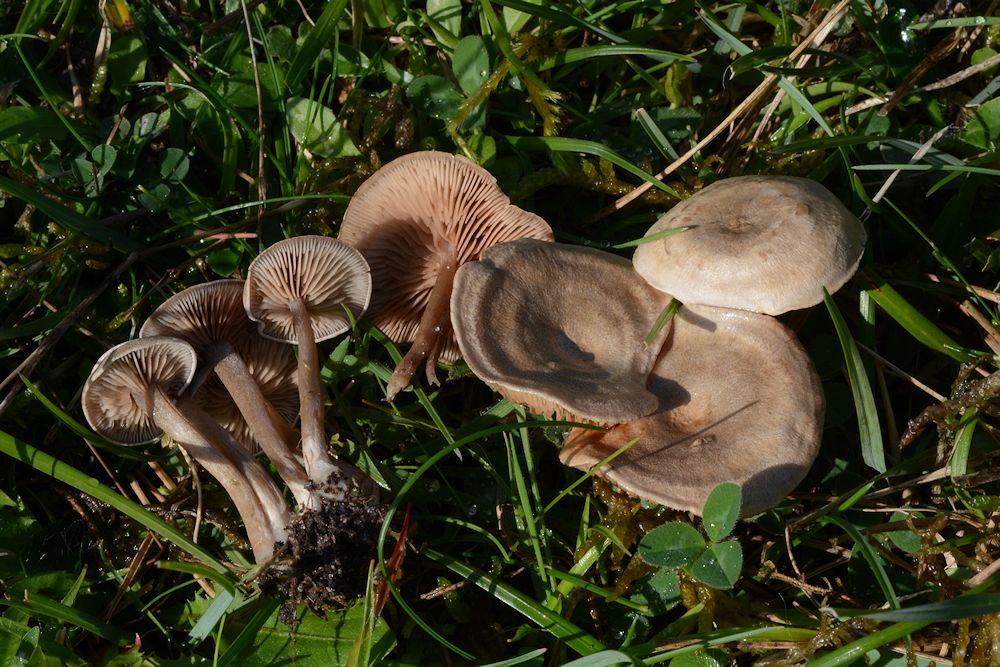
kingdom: Fungi
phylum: Basidiomycota
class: Agaricomycetes
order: Agaricales
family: Entolomataceae
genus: Entoloma
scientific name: Entoloma undatum
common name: bæltet rødblad
